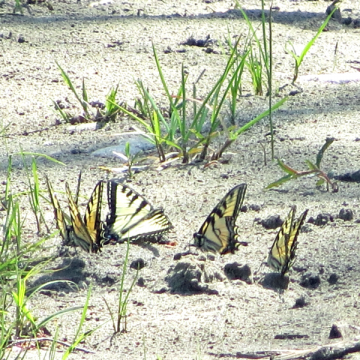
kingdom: Animalia
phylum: Arthropoda
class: Insecta
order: Lepidoptera
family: Papilionidae
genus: Pterourus
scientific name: Pterourus canadensis
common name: Canadian Tiger Swallowtail
